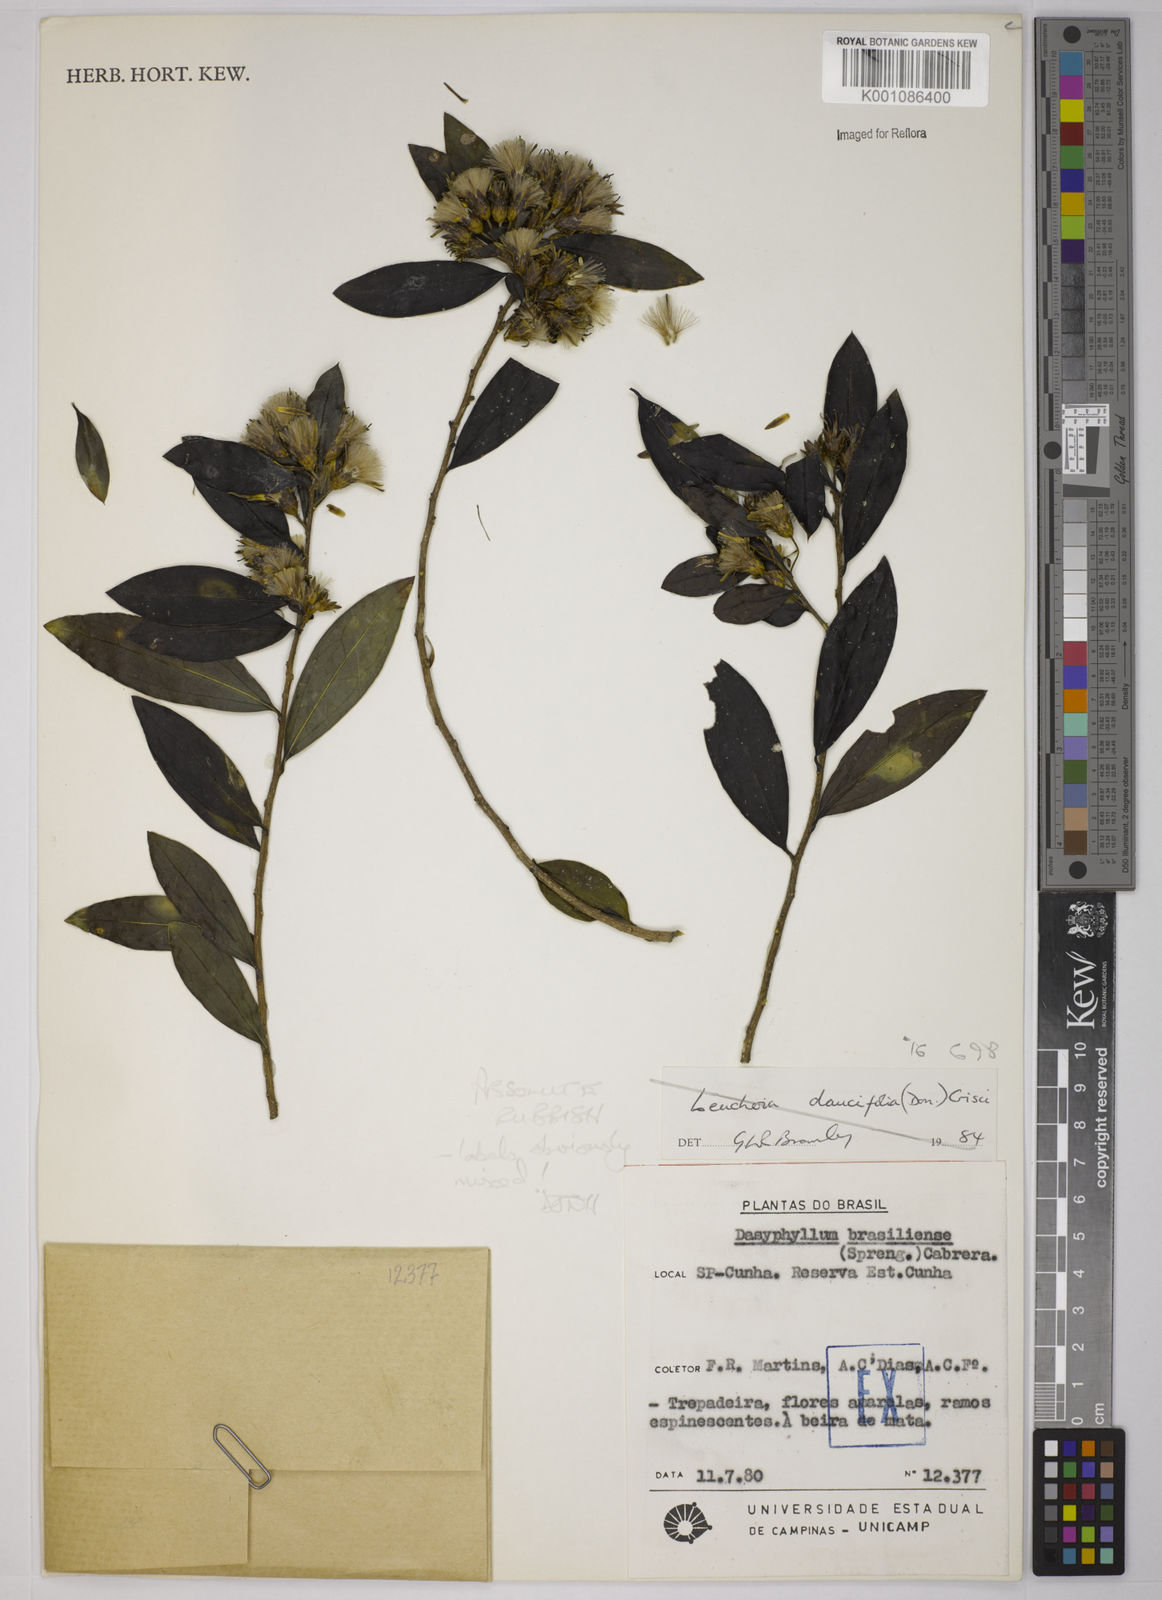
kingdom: Plantae
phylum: Tracheophyta
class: Magnoliopsida
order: Asterales
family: Asteraceae
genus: Dasyphyllum
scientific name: Dasyphyllum brasiliense
